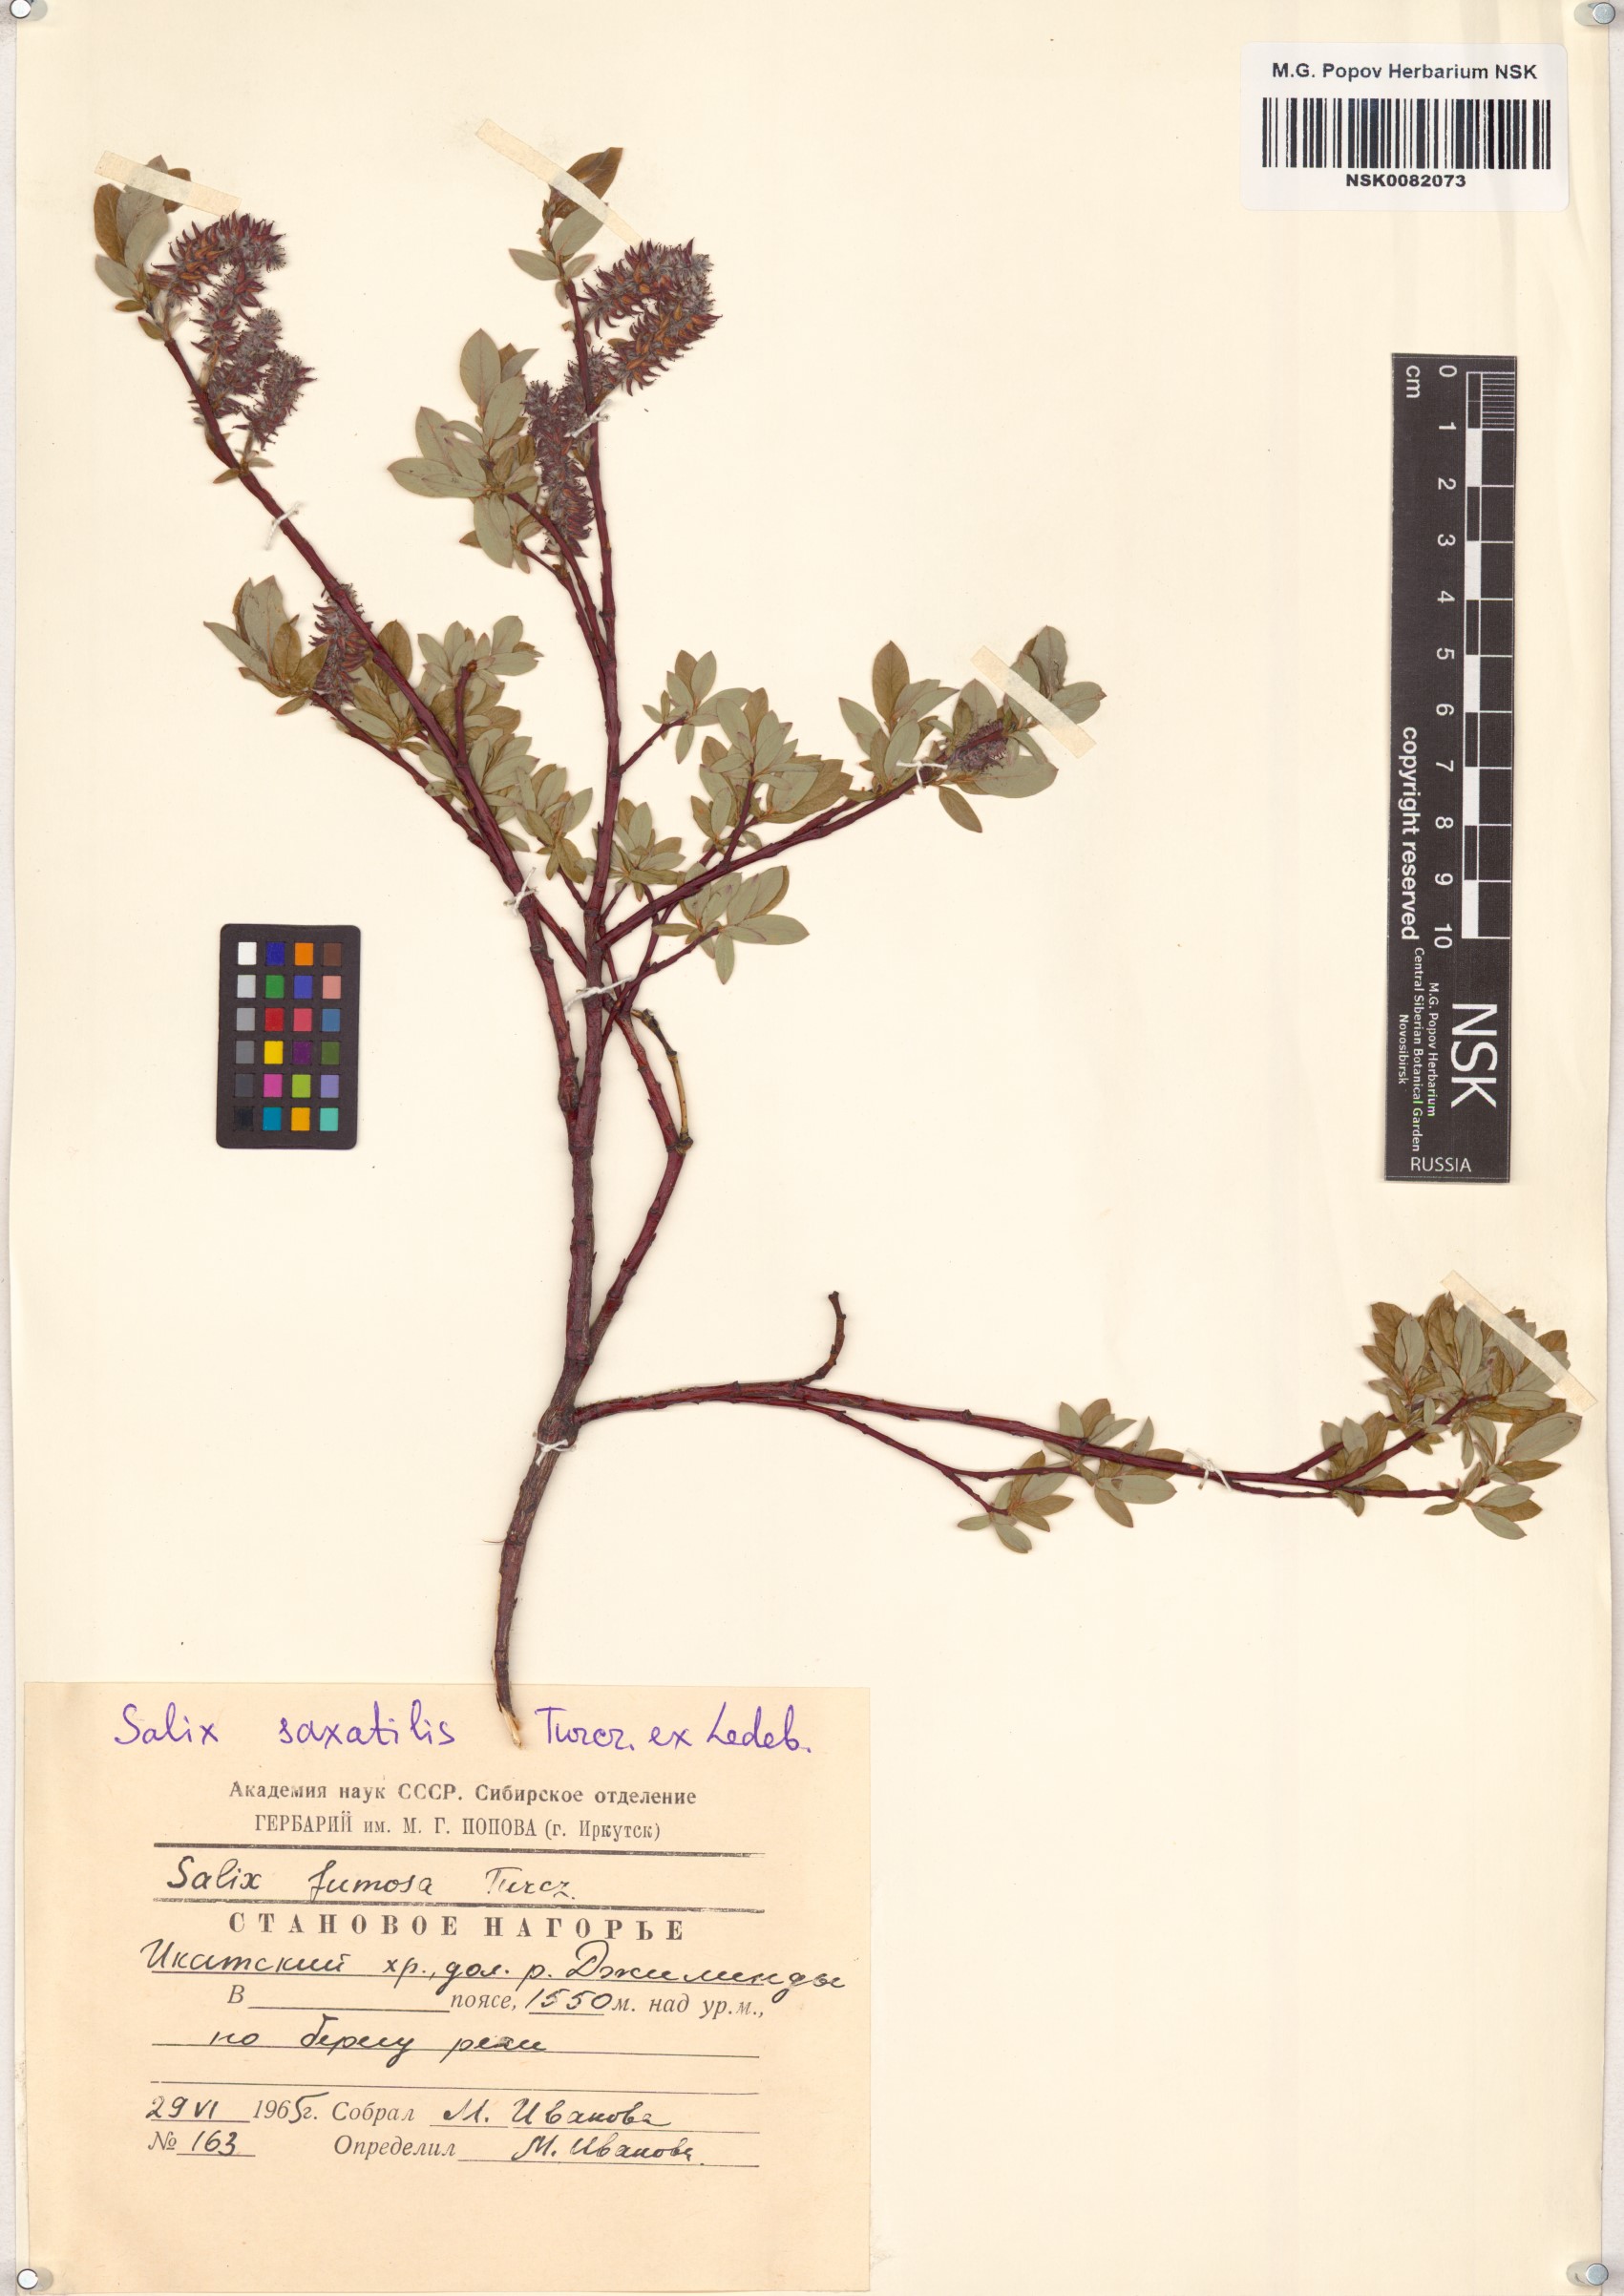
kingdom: Plantae
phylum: Tracheophyta
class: Magnoliopsida
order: Malpighiales
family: Salicaceae
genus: Salix
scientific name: Salix saxatilis
